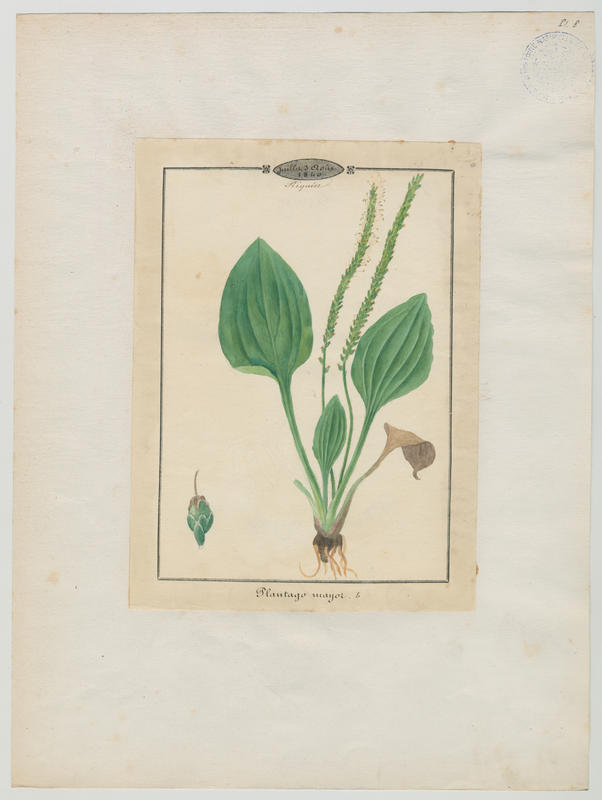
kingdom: Plantae
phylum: Tracheophyta
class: Magnoliopsida
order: Lamiales
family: Plantaginaceae
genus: Plantago
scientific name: Plantago major
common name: Common plantain
